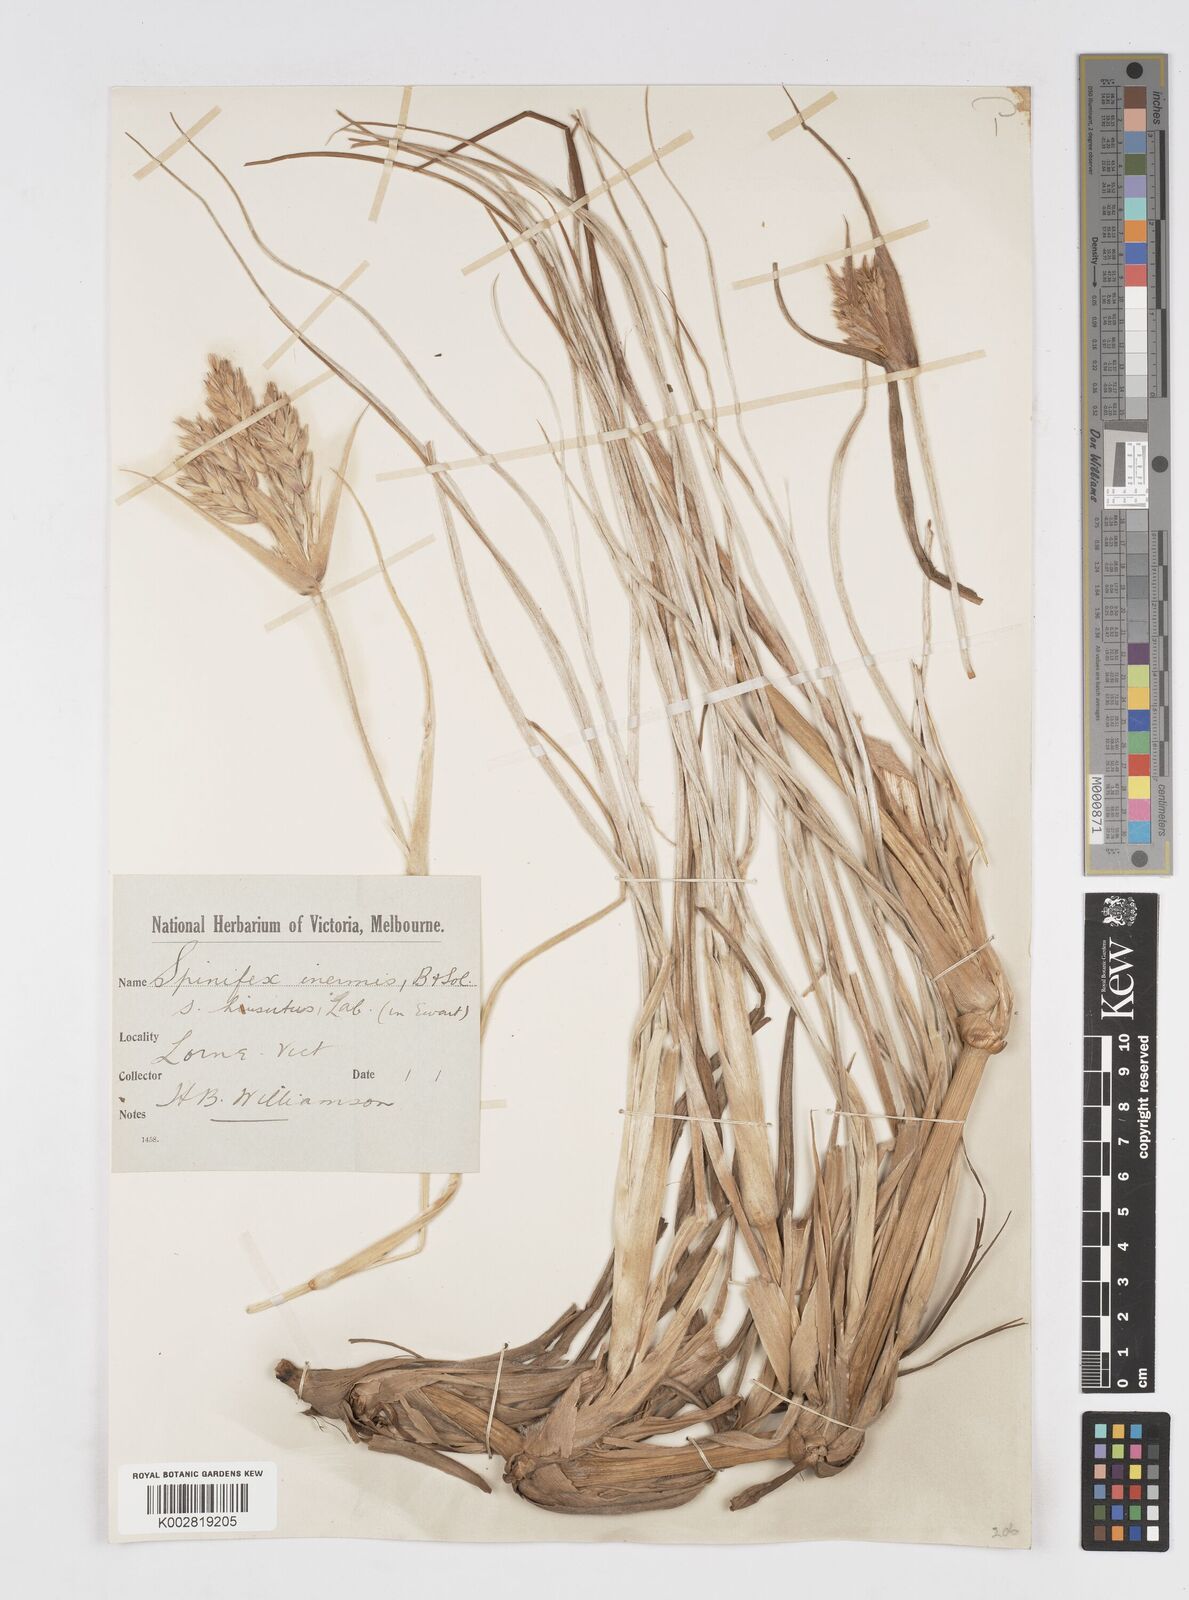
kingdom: Plantae
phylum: Tracheophyta
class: Liliopsida
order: Poales
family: Poaceae
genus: Spinifex
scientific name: Spinifex sericeus
